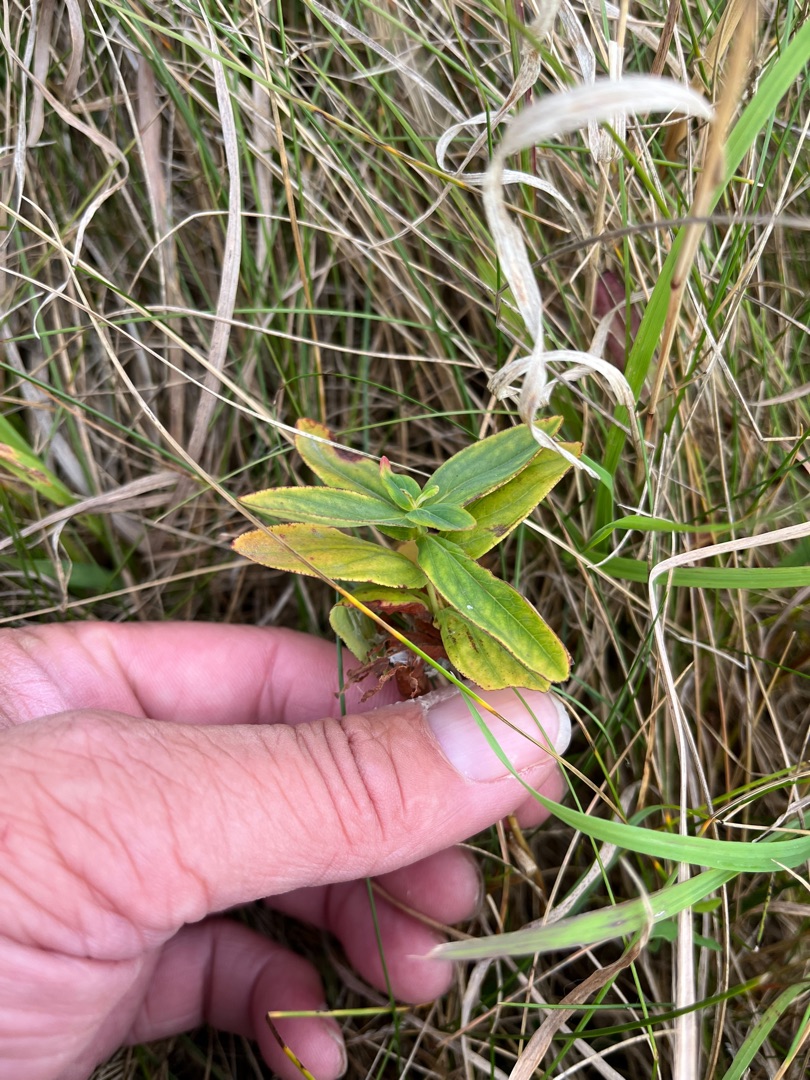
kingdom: Plantae
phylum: Tracheophyta
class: Magnoliopsida
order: Malpighiales
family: Hypericaceae
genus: Hypericum
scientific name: Hypericum montanum
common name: Bjerg-perikon
